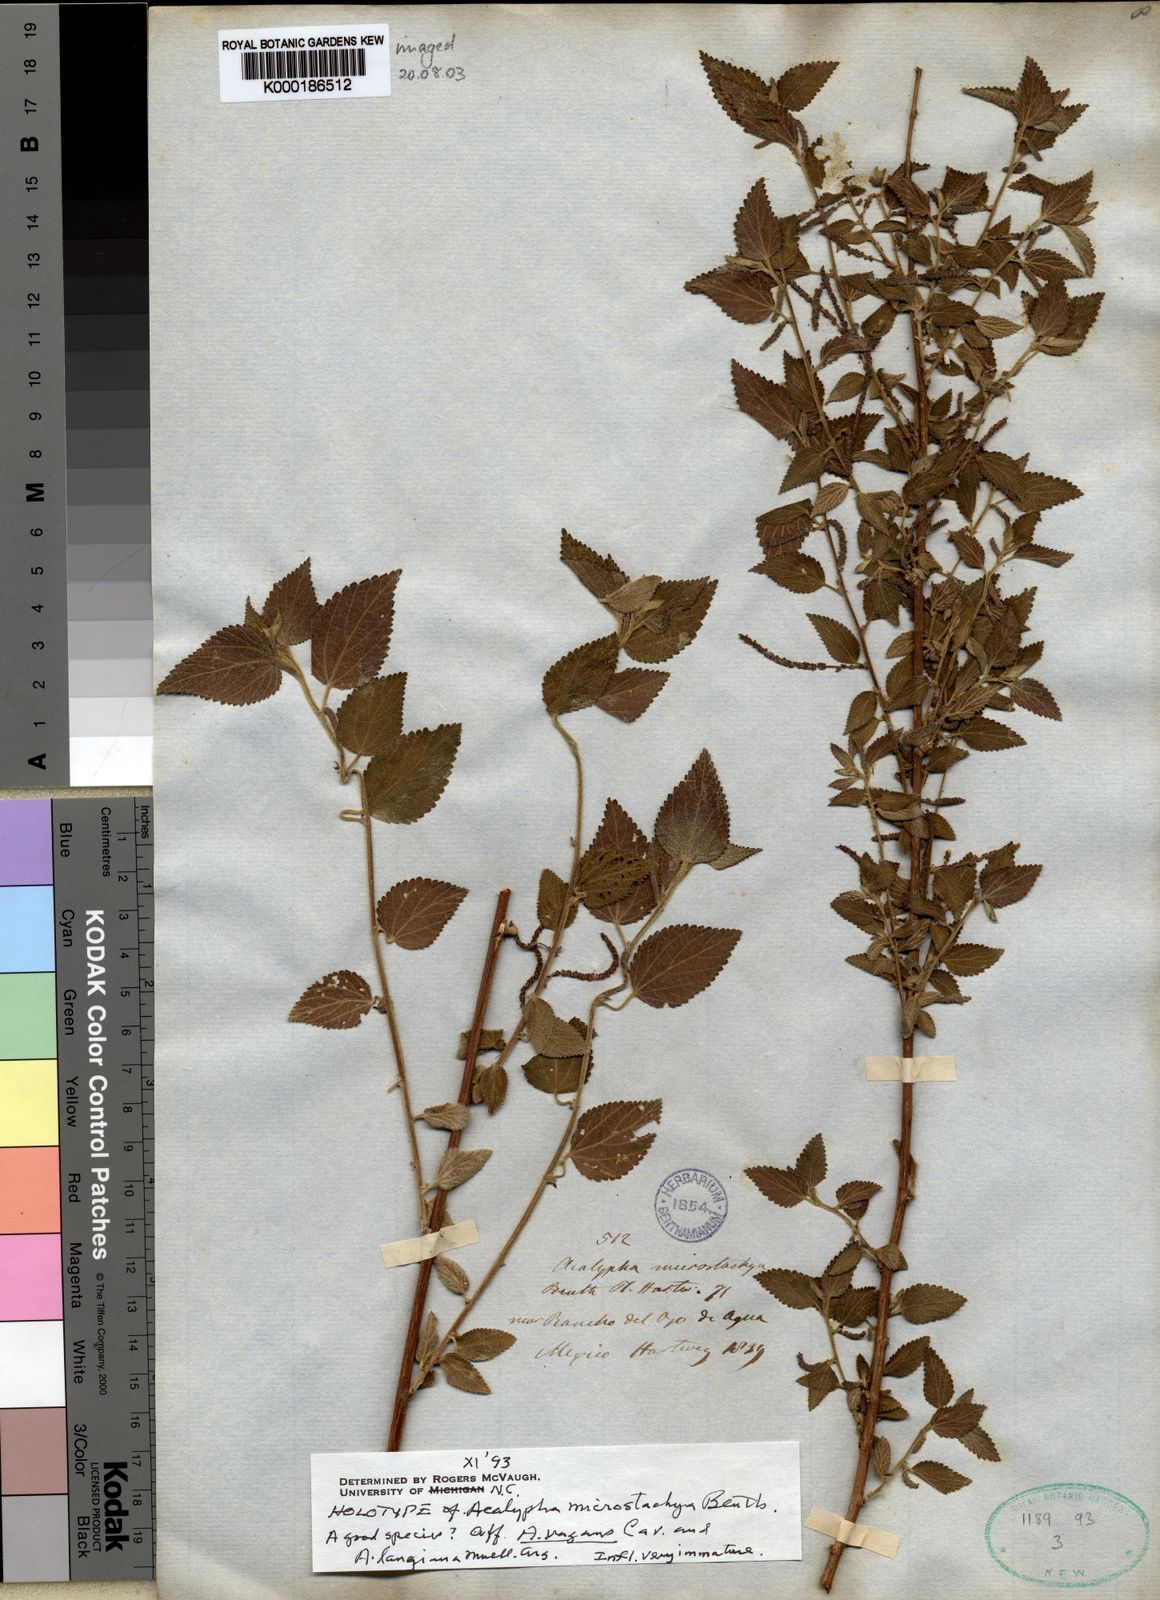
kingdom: Plantae
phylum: Tracheophyta
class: Magnoliopsida
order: Malpighiales
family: Euphorbiaceae
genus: Acalypha
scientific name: Acalypha mollis
